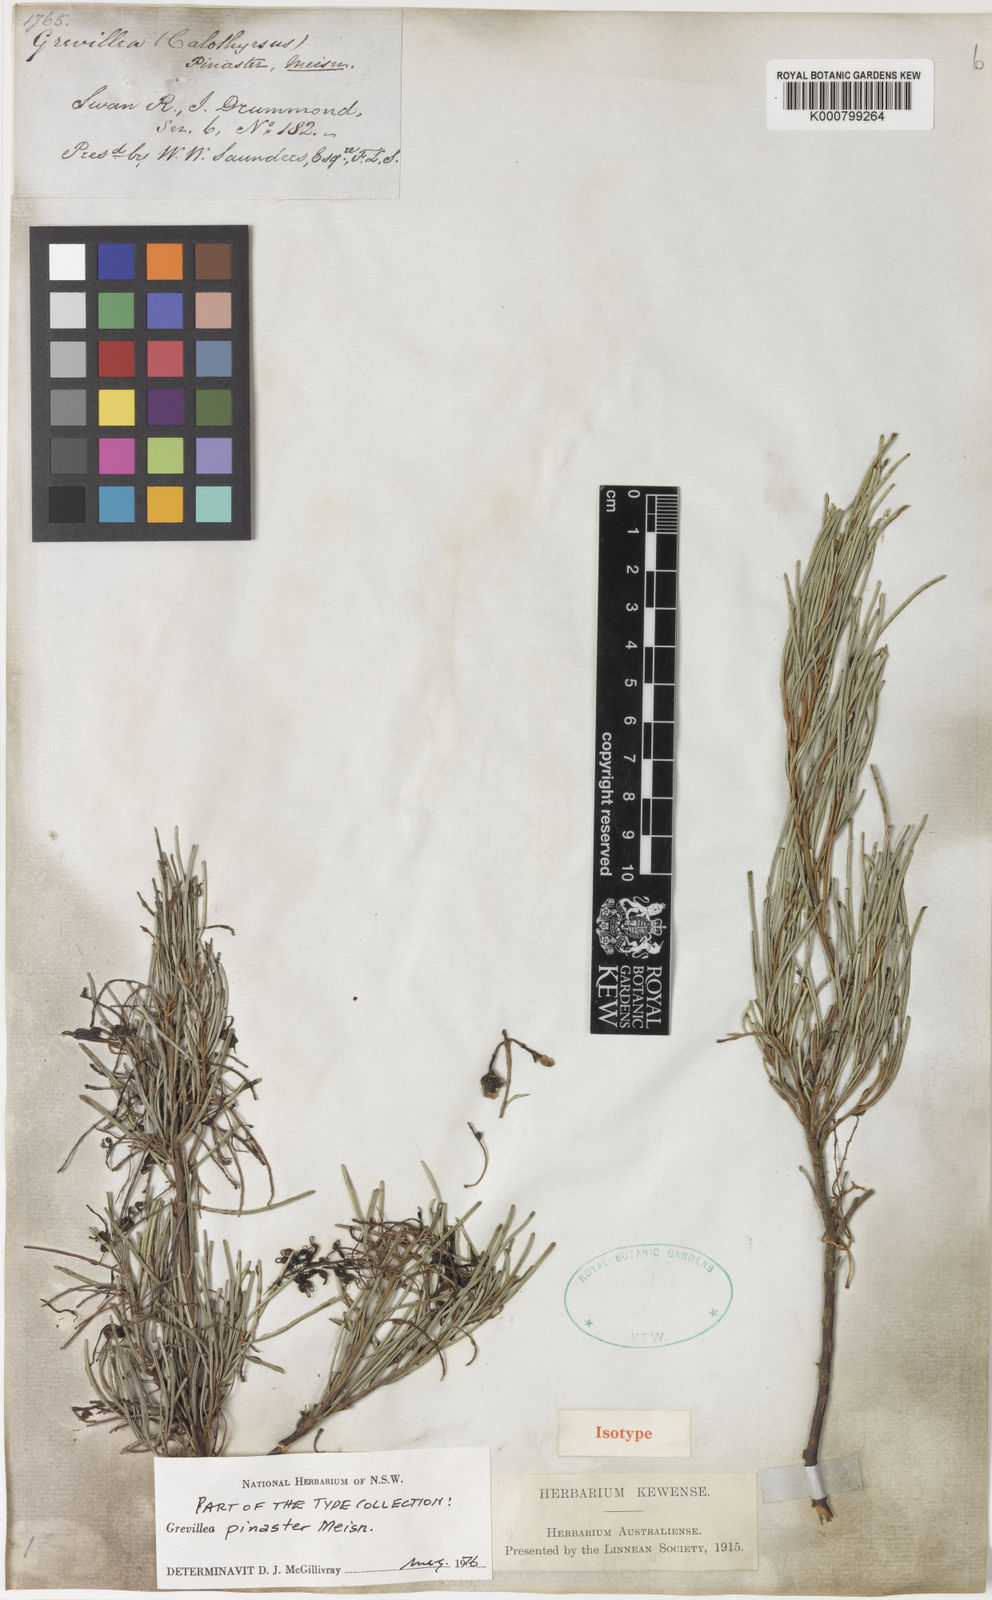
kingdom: Plantae
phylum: Tracheophyta
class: Magnoliopsida
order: Proteales
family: Proteaceae
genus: Grevillea
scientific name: Grevillea pinaster
